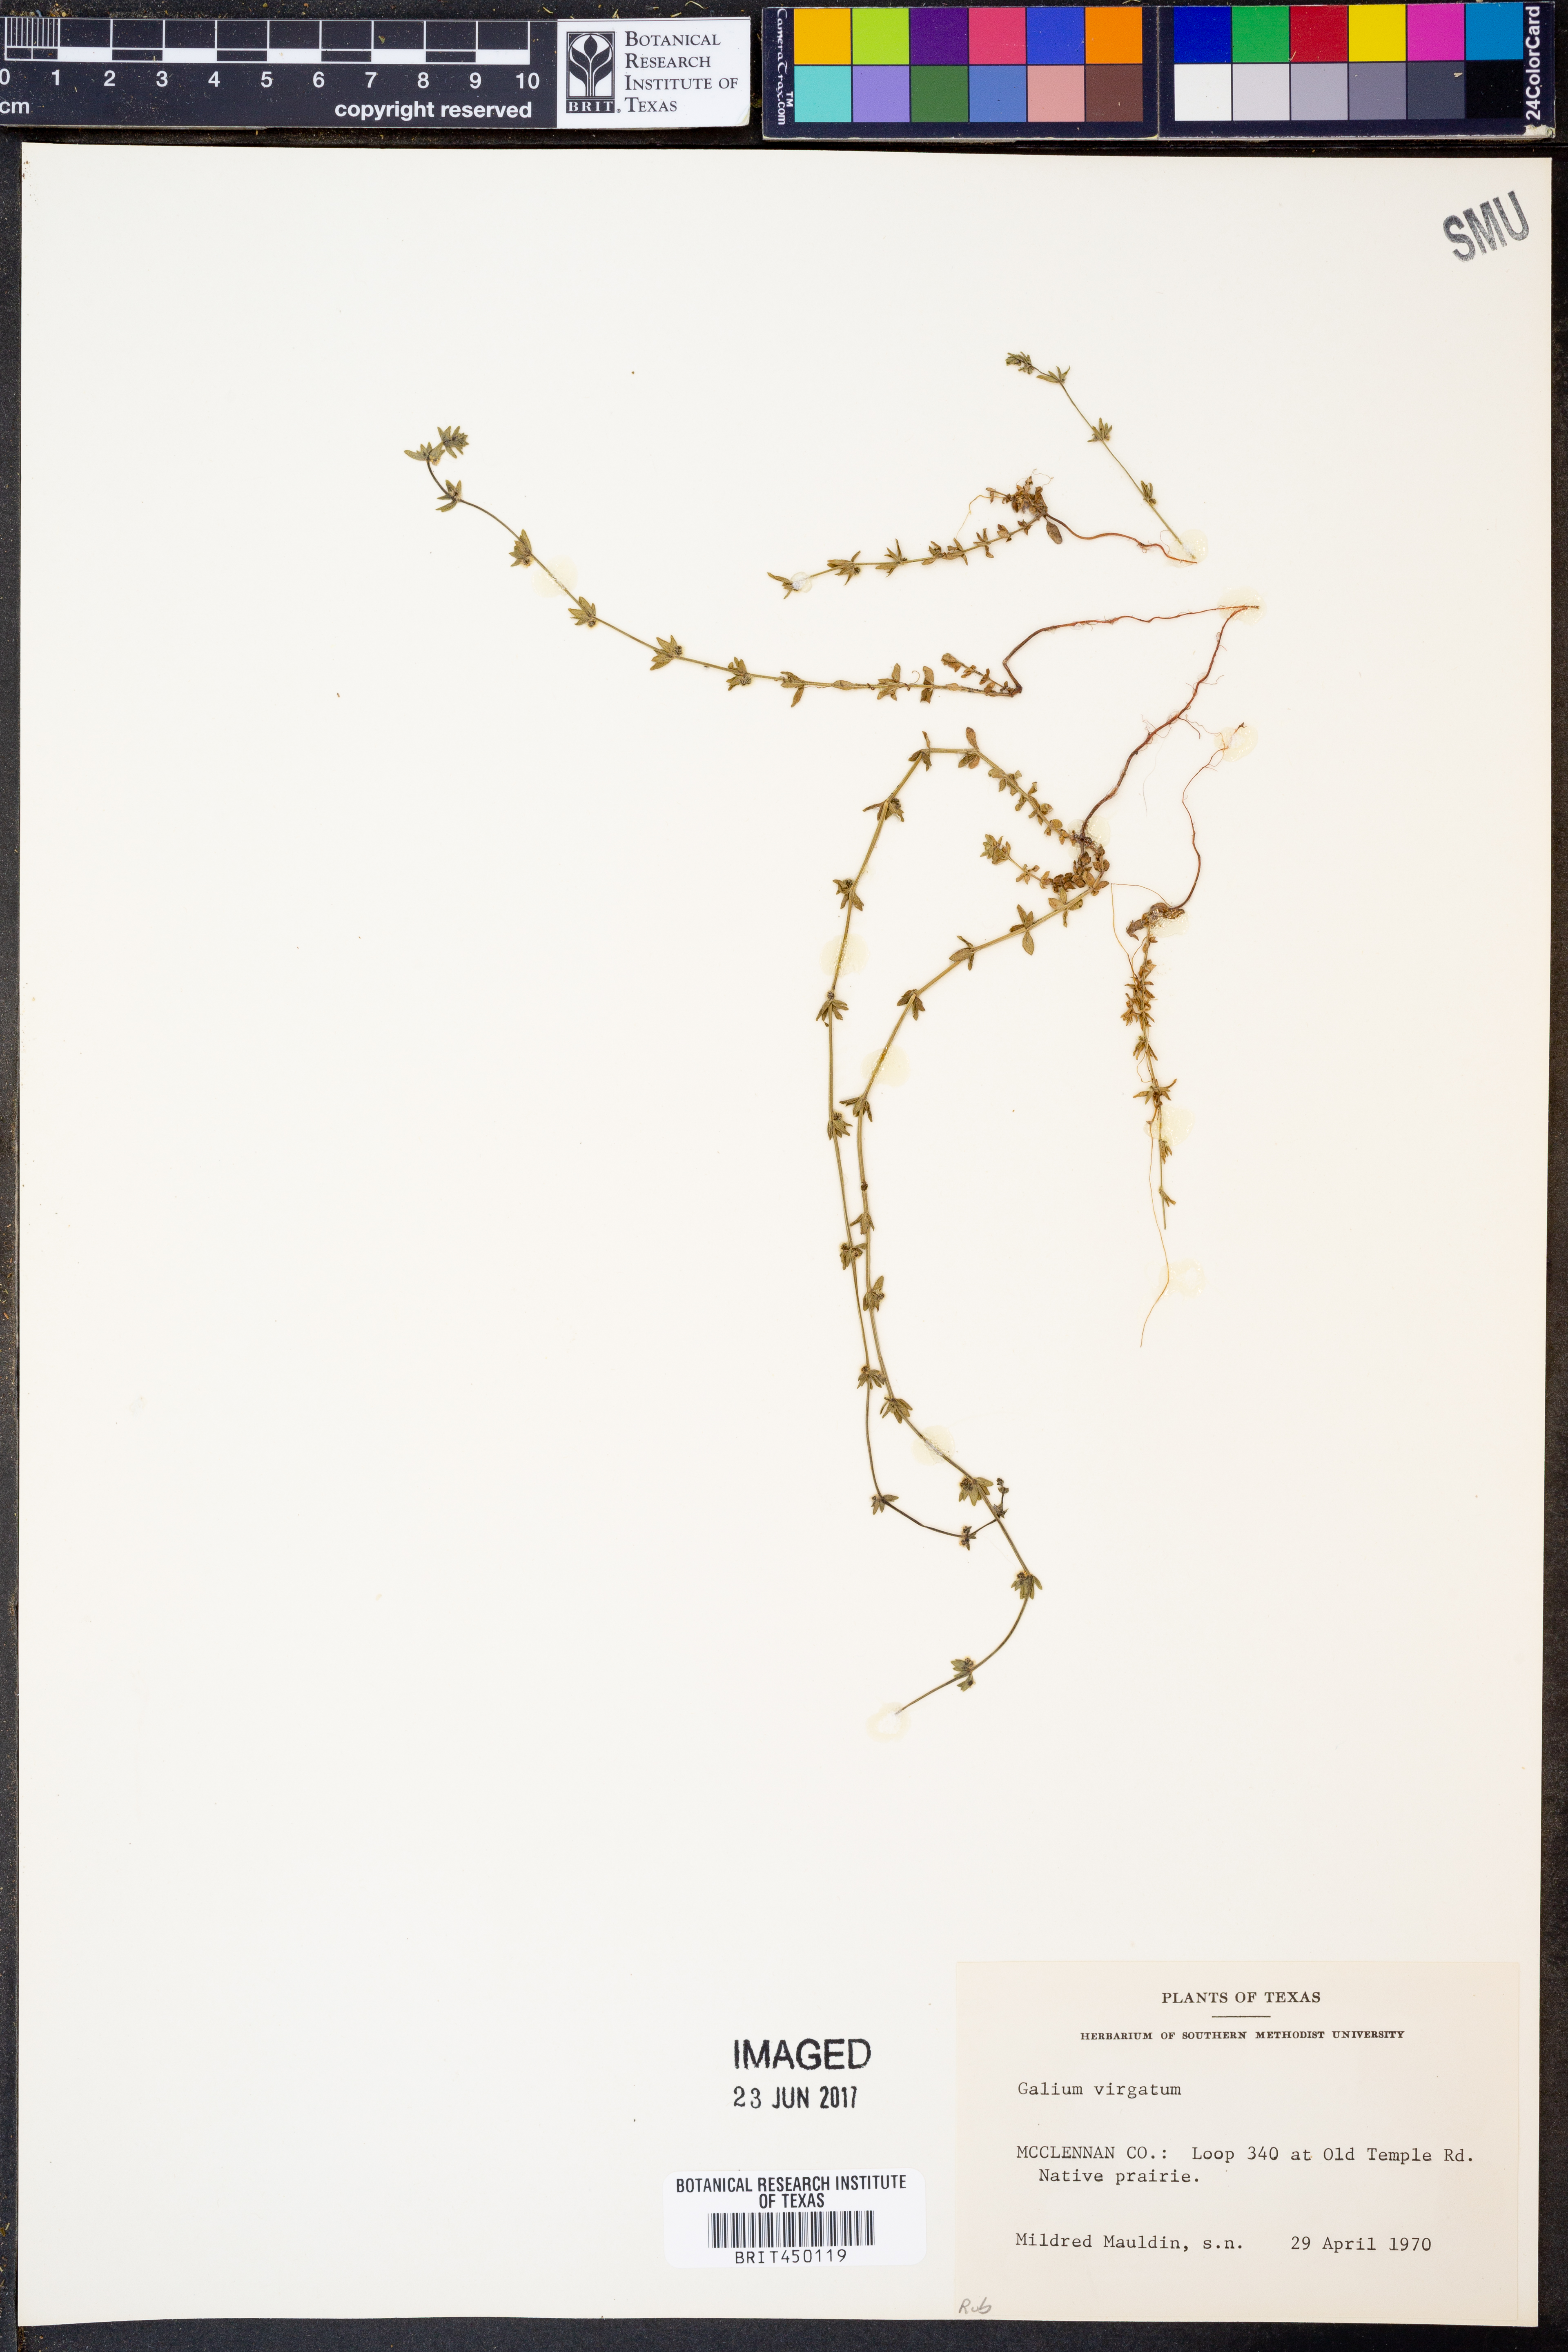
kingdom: Plantae
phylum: Tracheophyta
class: Magnoliopsida
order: Gentianales
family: Rubiaceae
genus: Galium
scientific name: Galium virgatum
